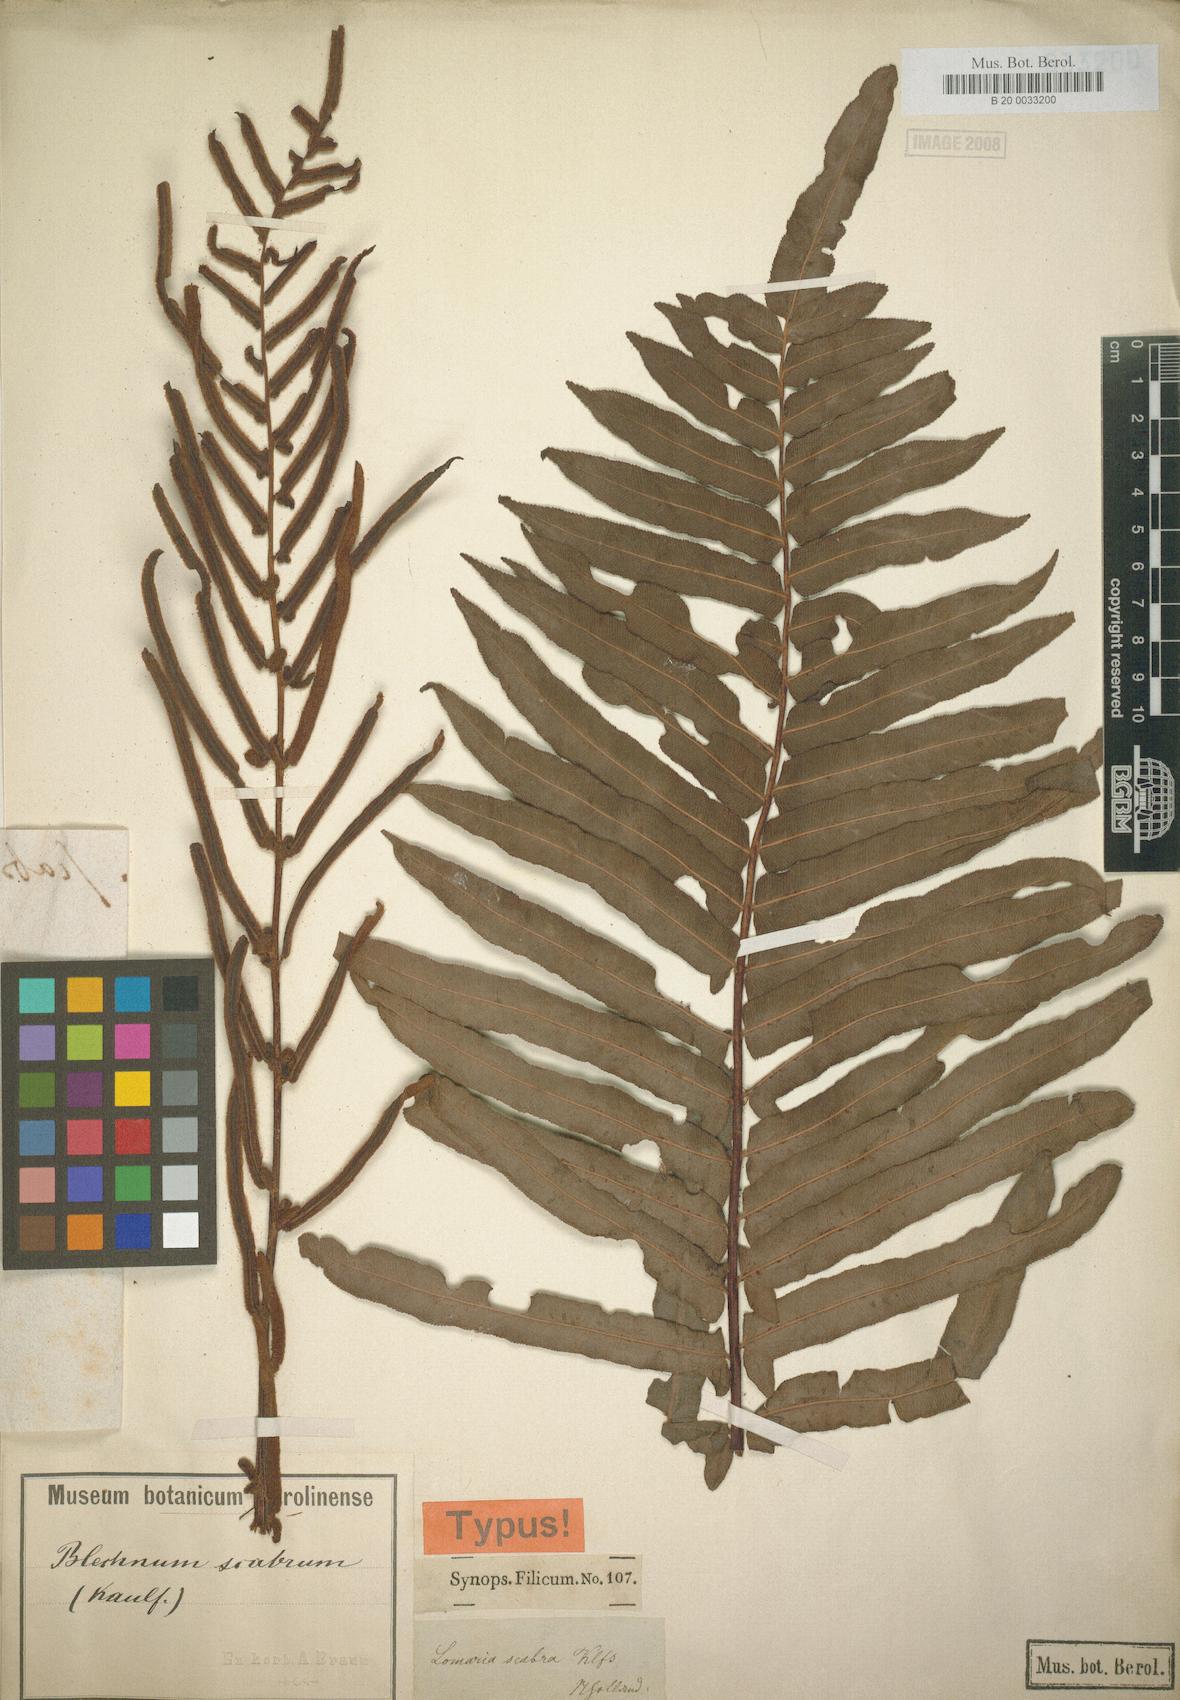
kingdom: Plantae
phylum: Tracheophyta
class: Polypodiopsida
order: Polypodiales
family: Blechnaceae
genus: Blechnum
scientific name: Blechnum polypodioides
